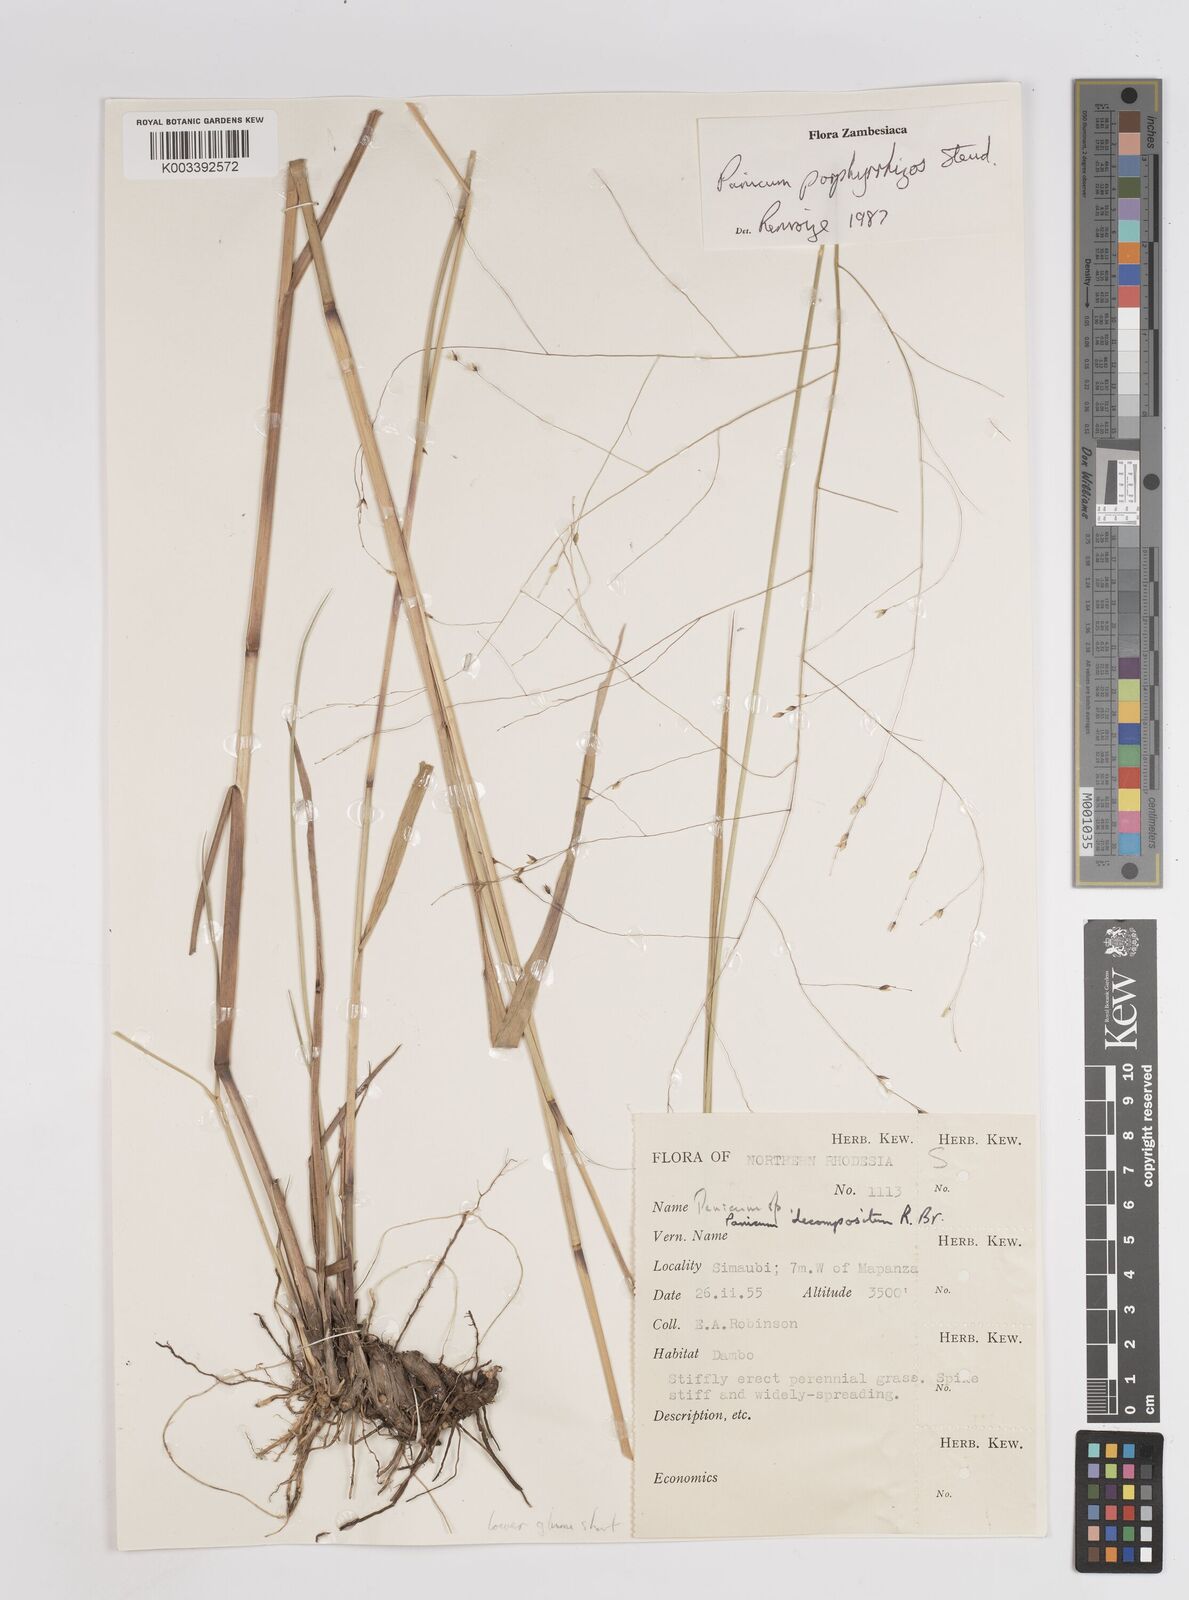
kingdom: Plantae
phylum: Tracheophyta
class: Liliopsida
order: Poales
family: Poaceae
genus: Panicum
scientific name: Panicum porphyrrhizos
